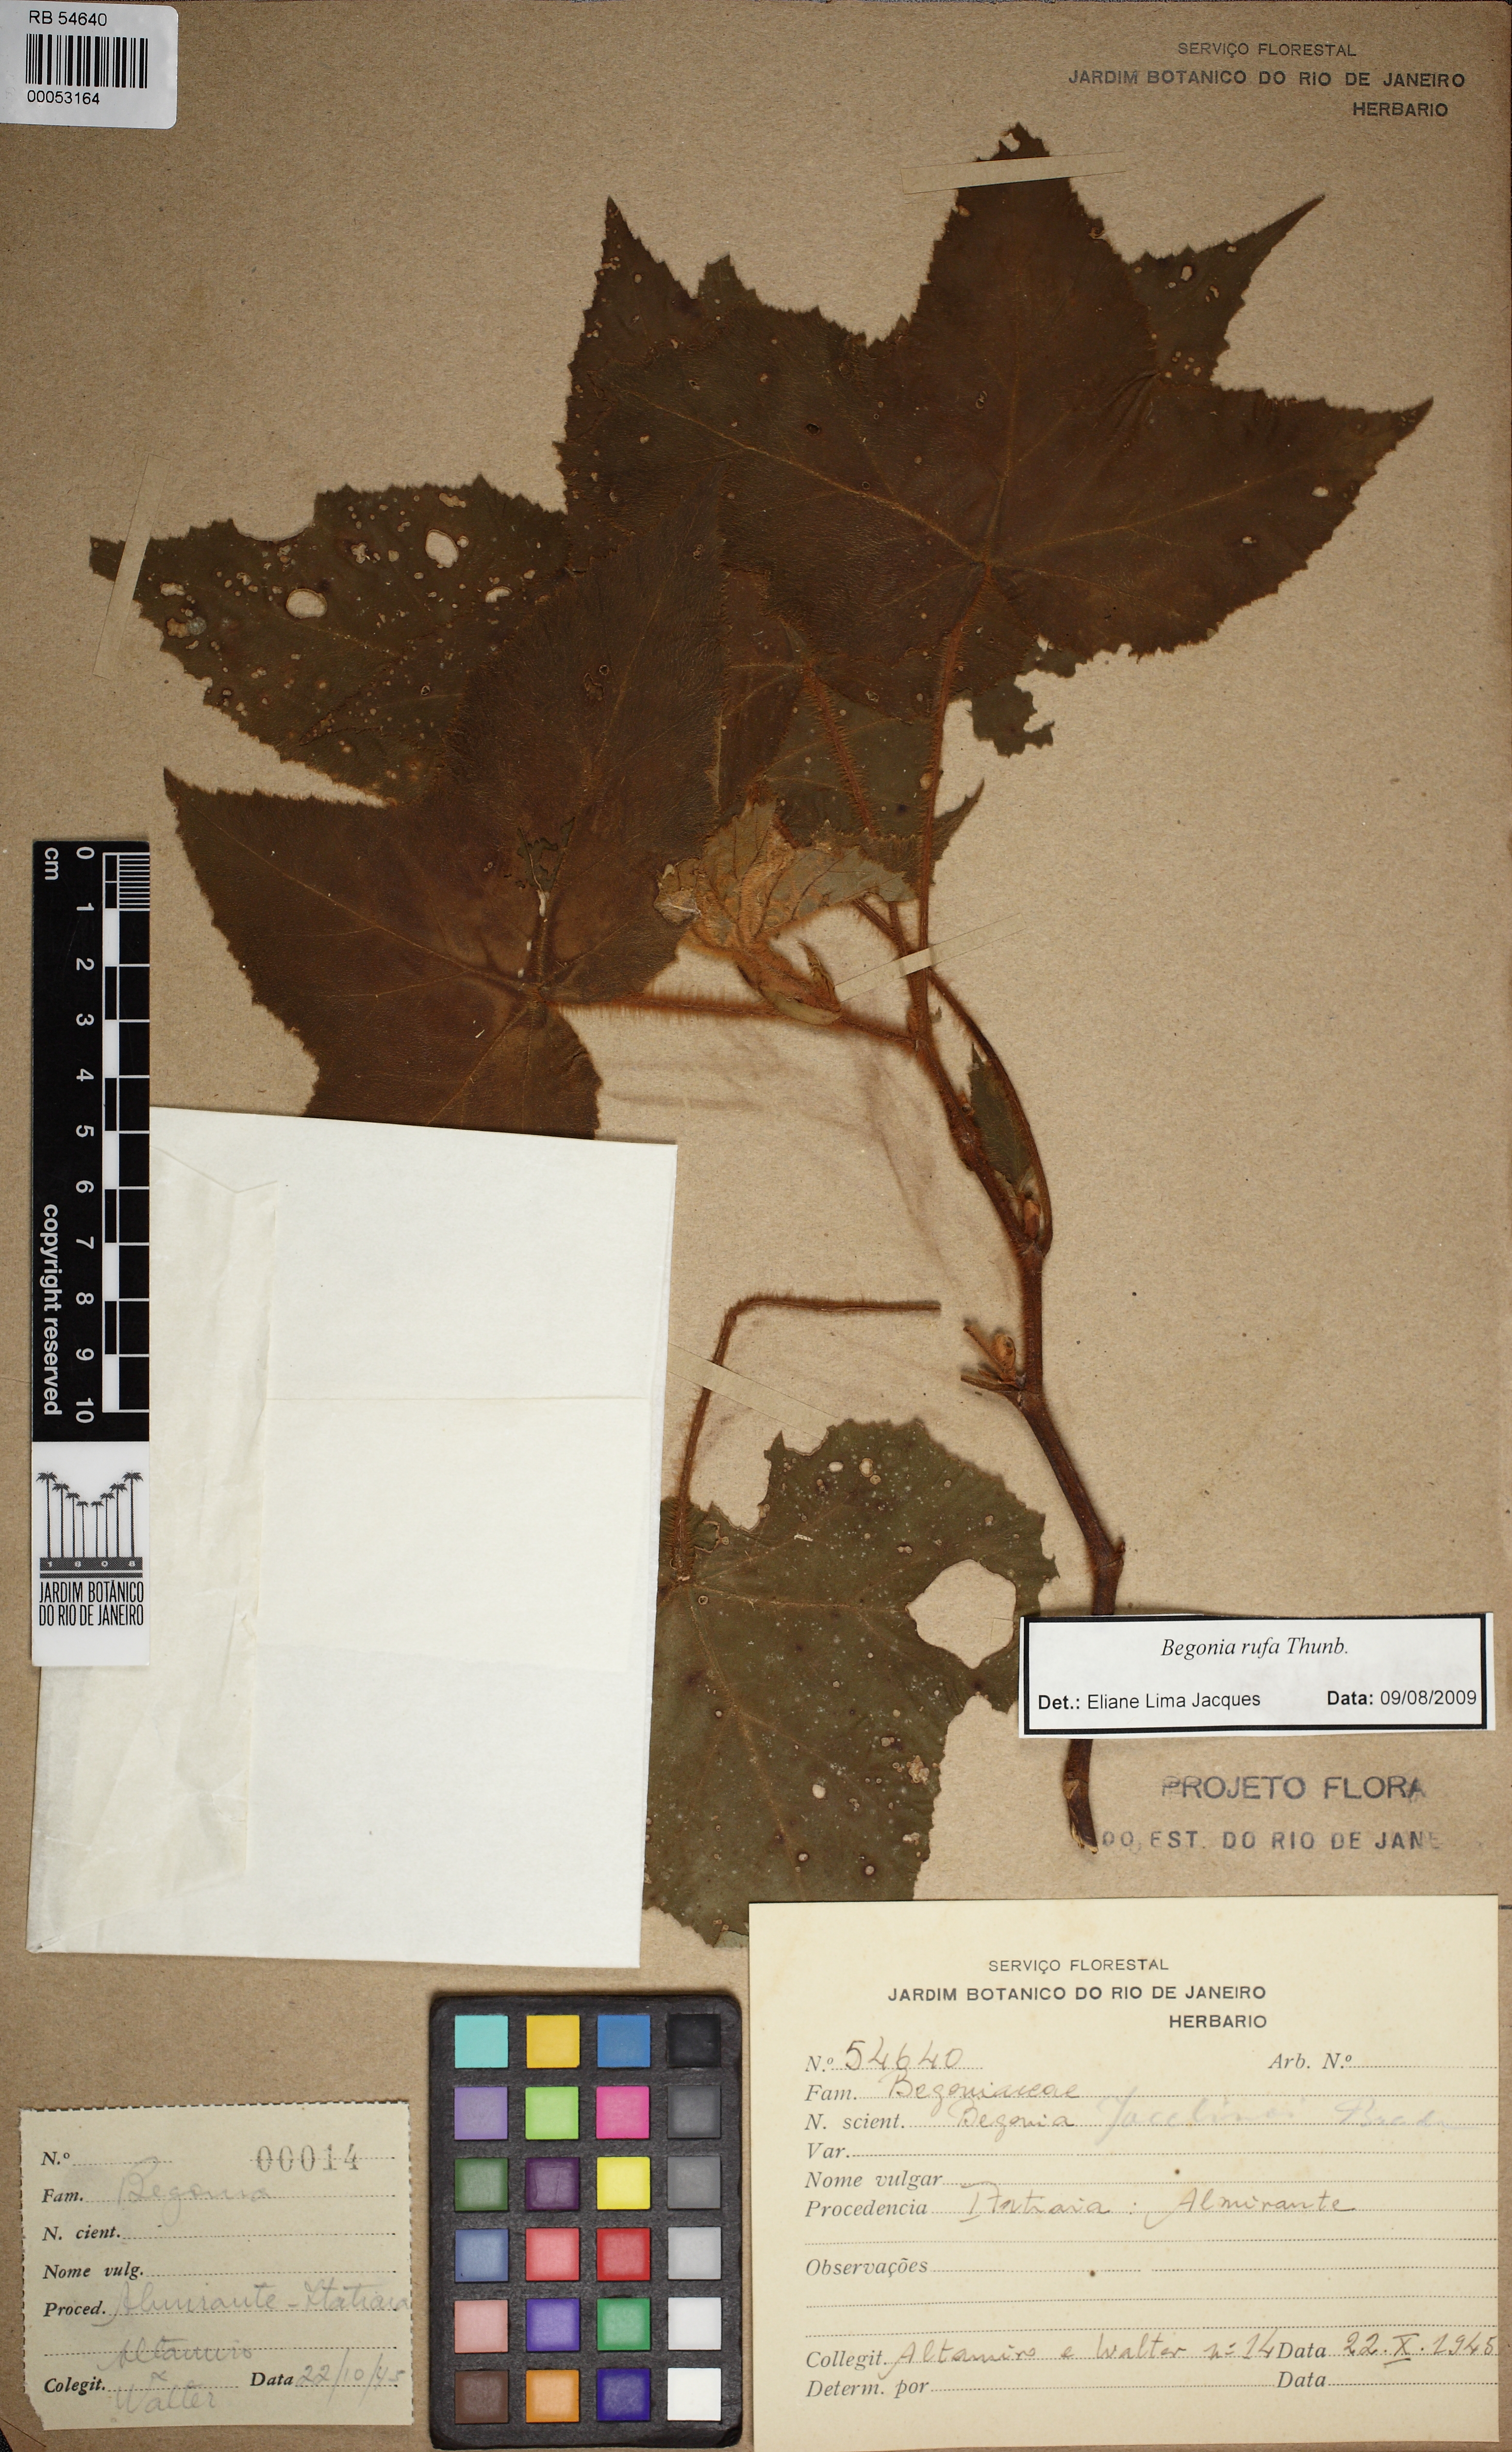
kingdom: Plantae
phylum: Tracheophyta
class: Magnoliopsida
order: Cucurbitales
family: Begoniaceae
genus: Begonia
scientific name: Begonia jocelinoi
